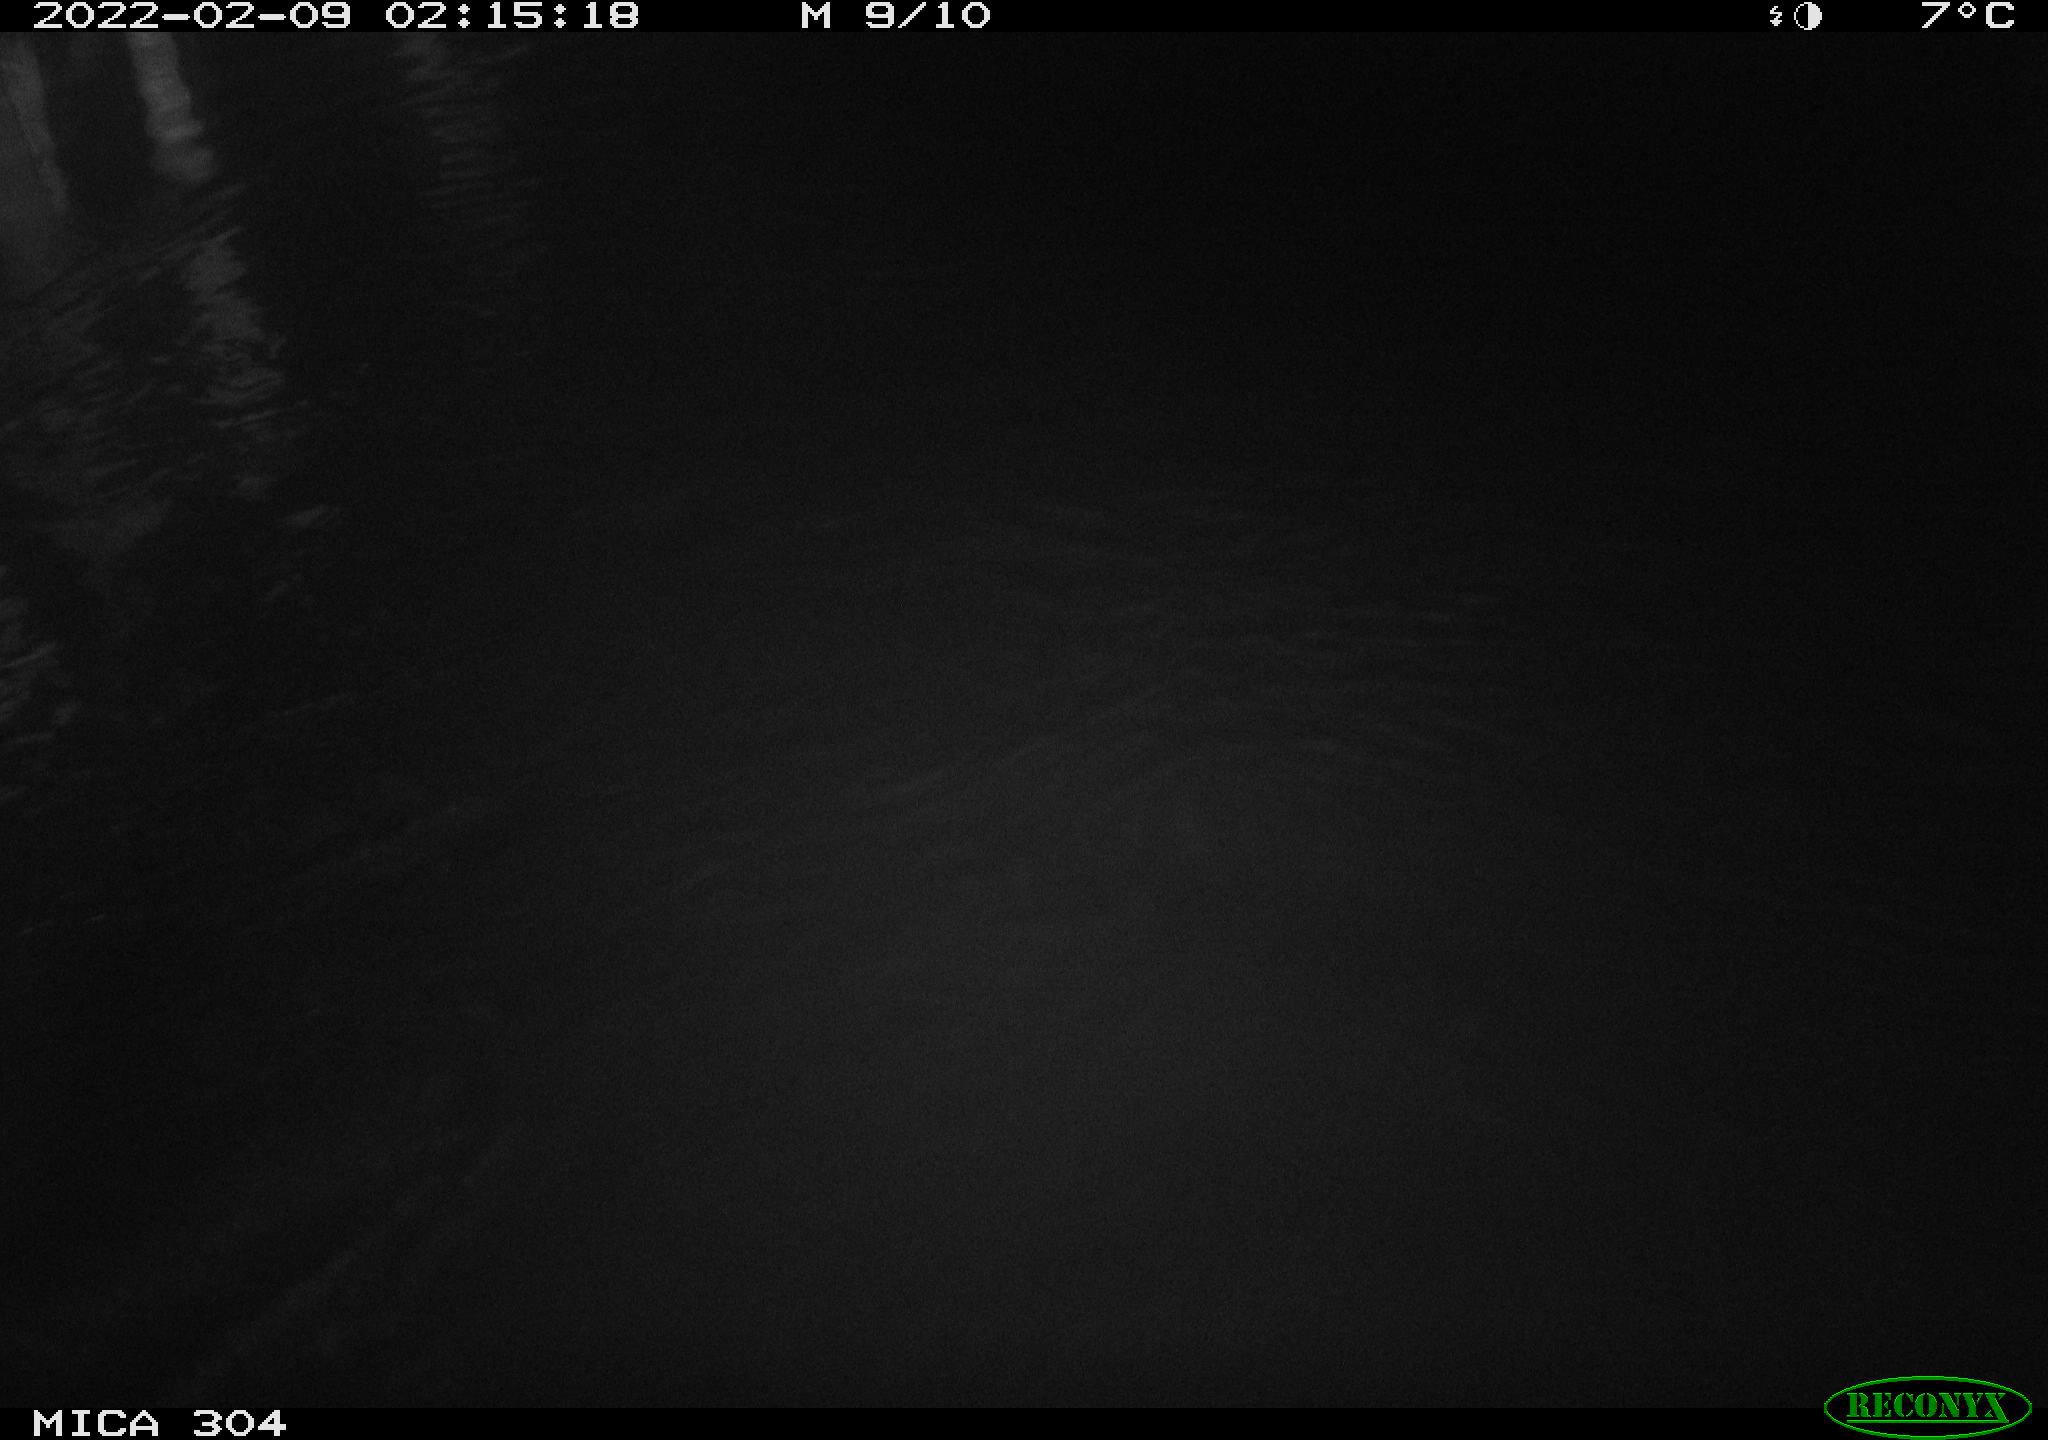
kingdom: Animalia
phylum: Chordata
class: Mammalia
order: Rodentia
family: Cricetidae
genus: Ondatra
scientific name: Ondatra zibethicus
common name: Muskrat
